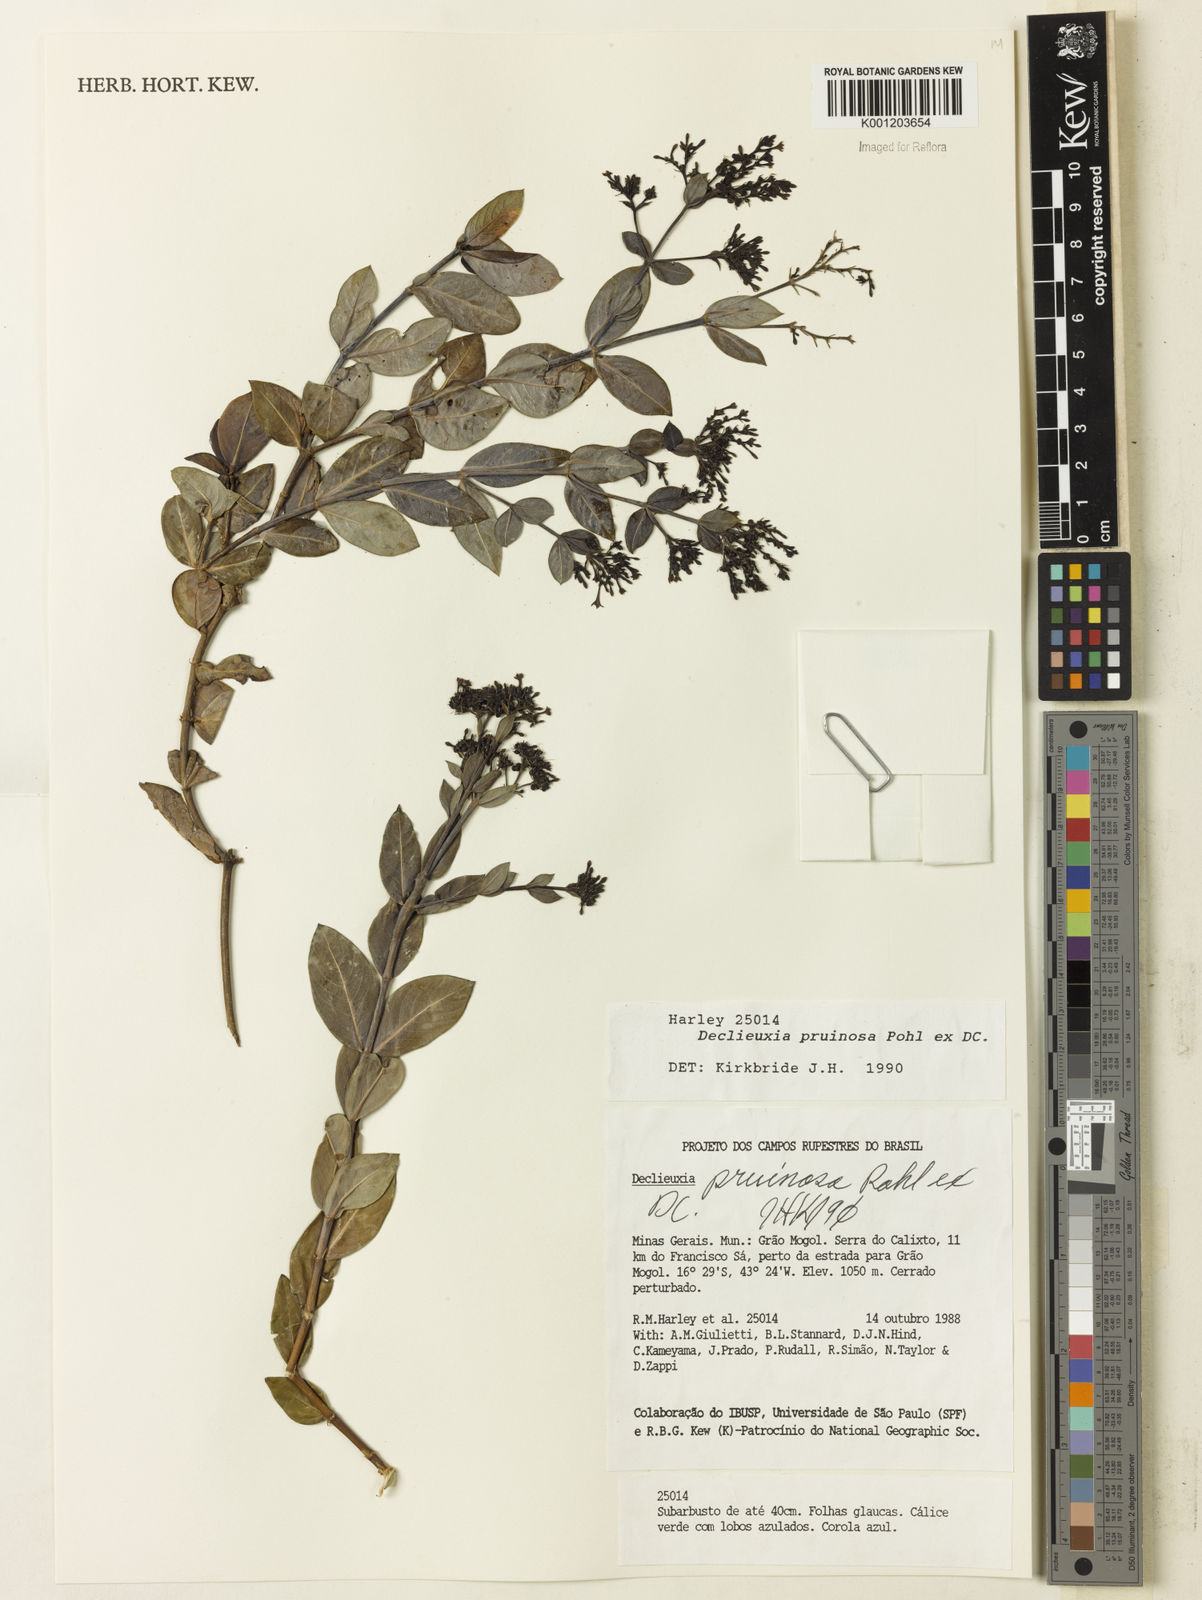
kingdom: Plantae
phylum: Tracheophyta
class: Magnoliopsida
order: Gentianales
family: Rubiaceae
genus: Declieuxia
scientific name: Declieuxia pruinosa
